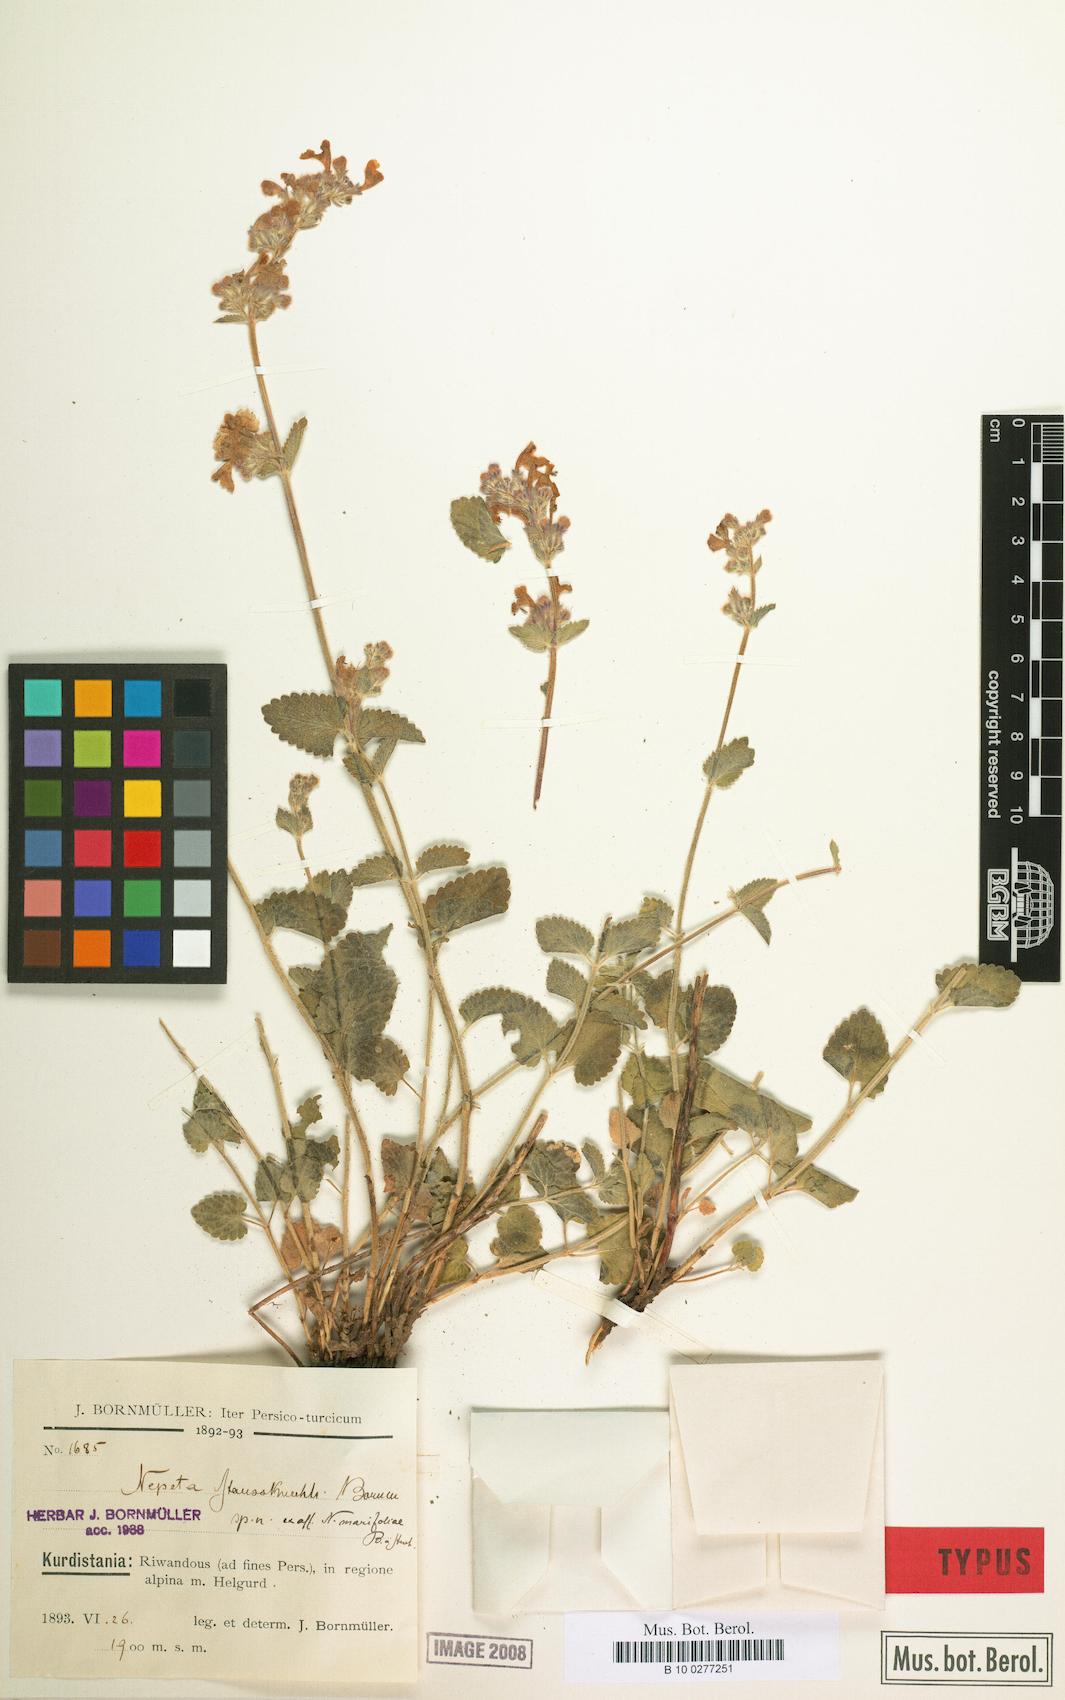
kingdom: Plantae
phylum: Tracheophyta
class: Magnoliopsida
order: Lamiales
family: Lamiaceae
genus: Nepeta
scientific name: Nepeta racemosa
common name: Raceme catnip
